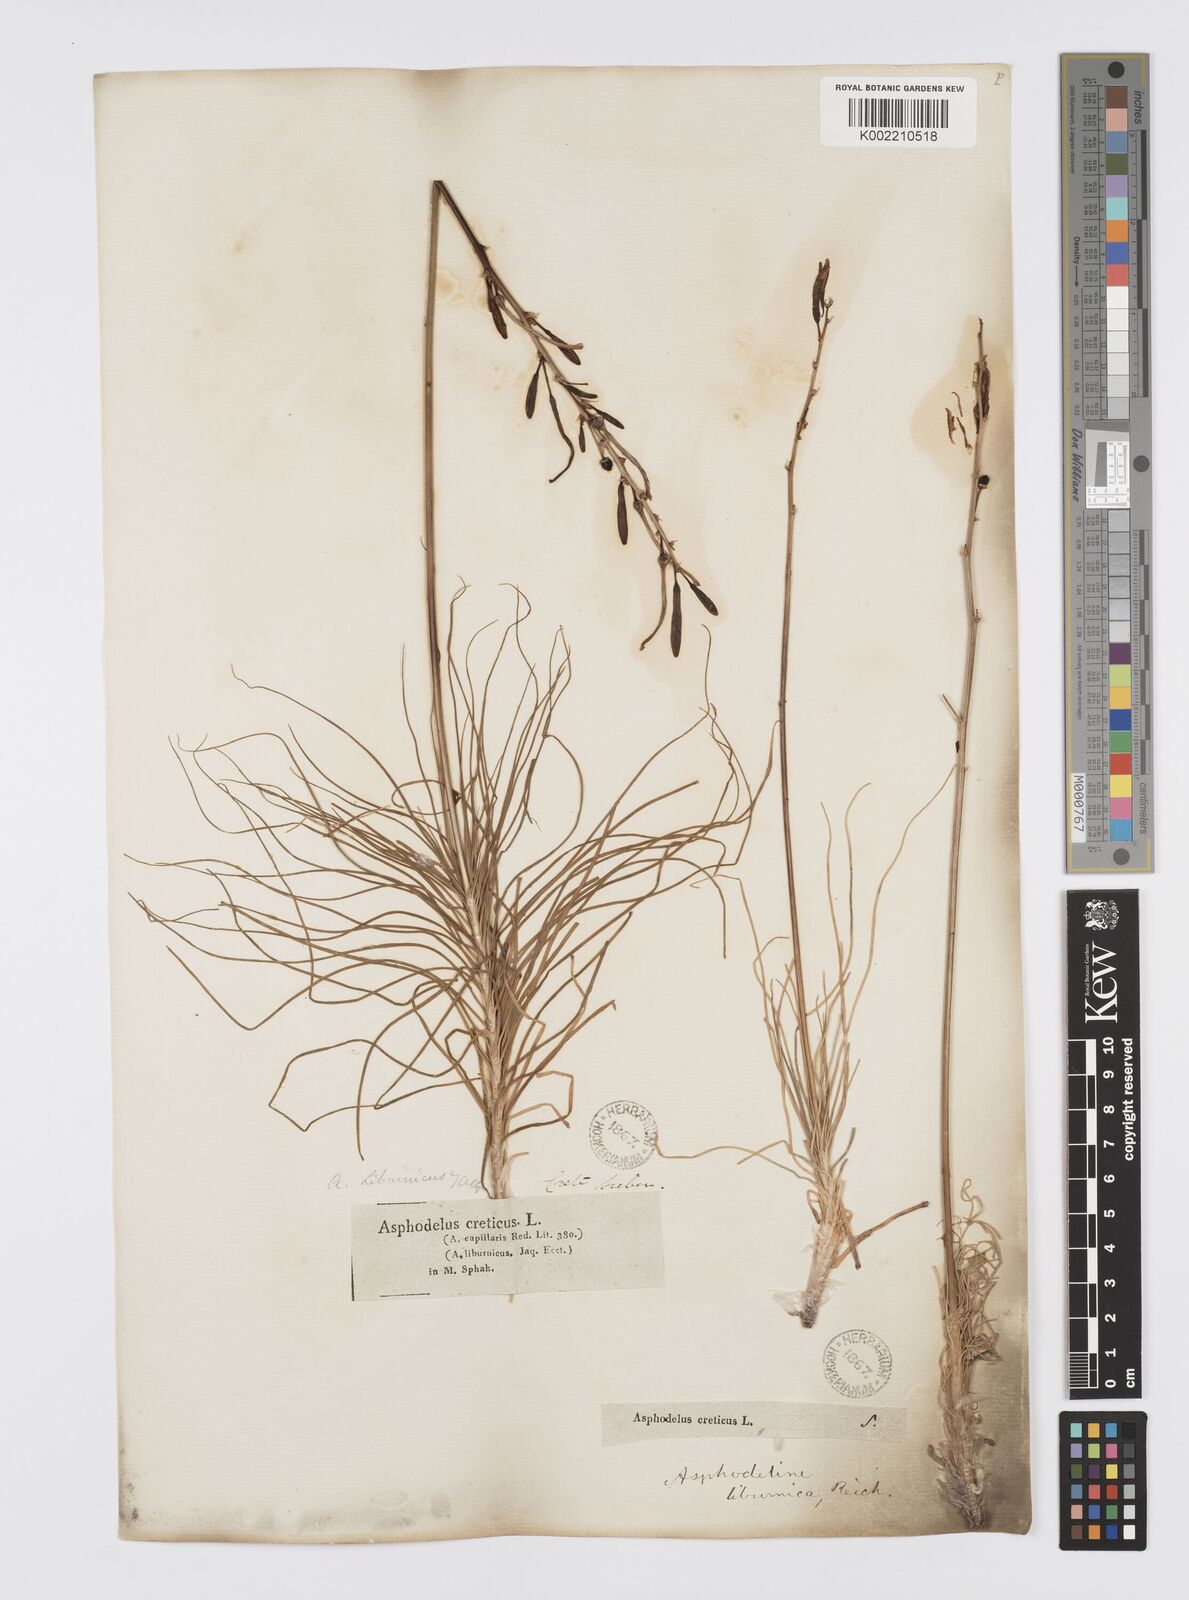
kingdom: Plantae
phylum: Tracheophyta
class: Liliopsida
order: Asparagales
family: Asphodelaceae
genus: Asphodeline
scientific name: Asphodeline liburnica
